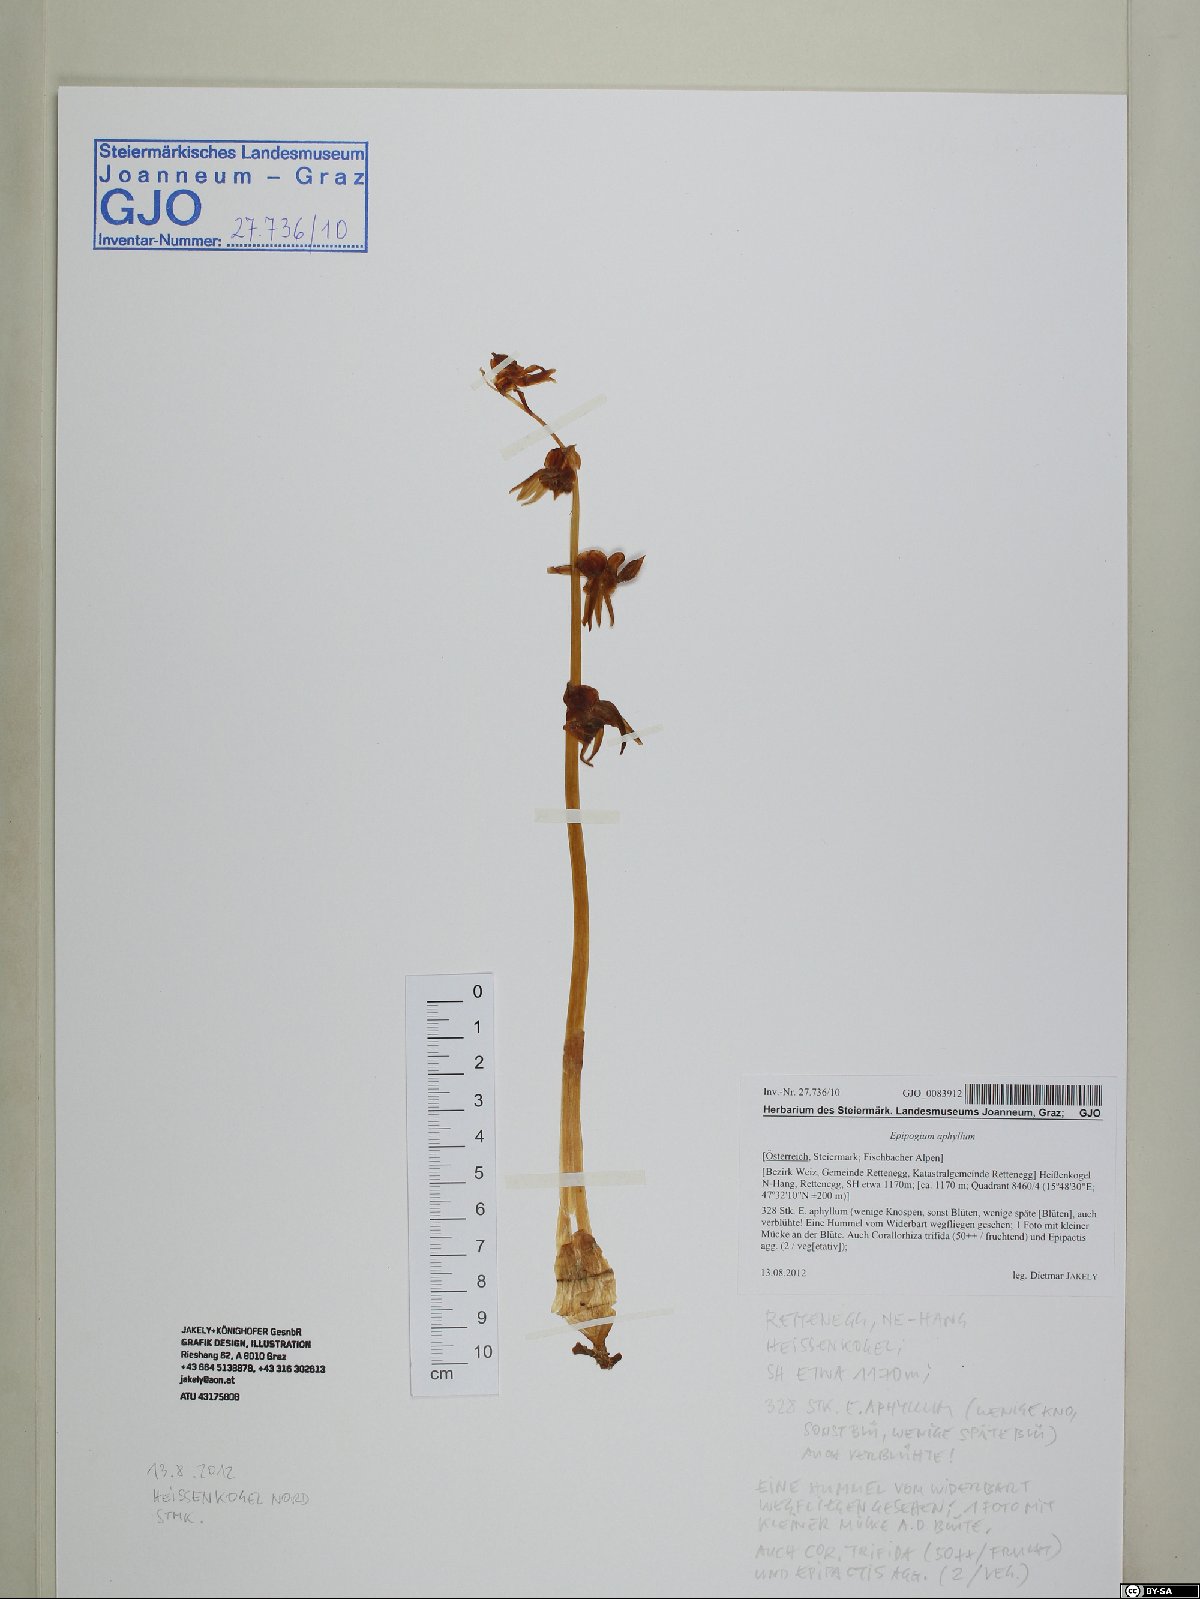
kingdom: Plantae
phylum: Tracheophyta
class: Liliopsida
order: Asparagales
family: Orchidaceae
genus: Epipogium
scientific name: Epipogium aphyllum
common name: Ghost orchid
